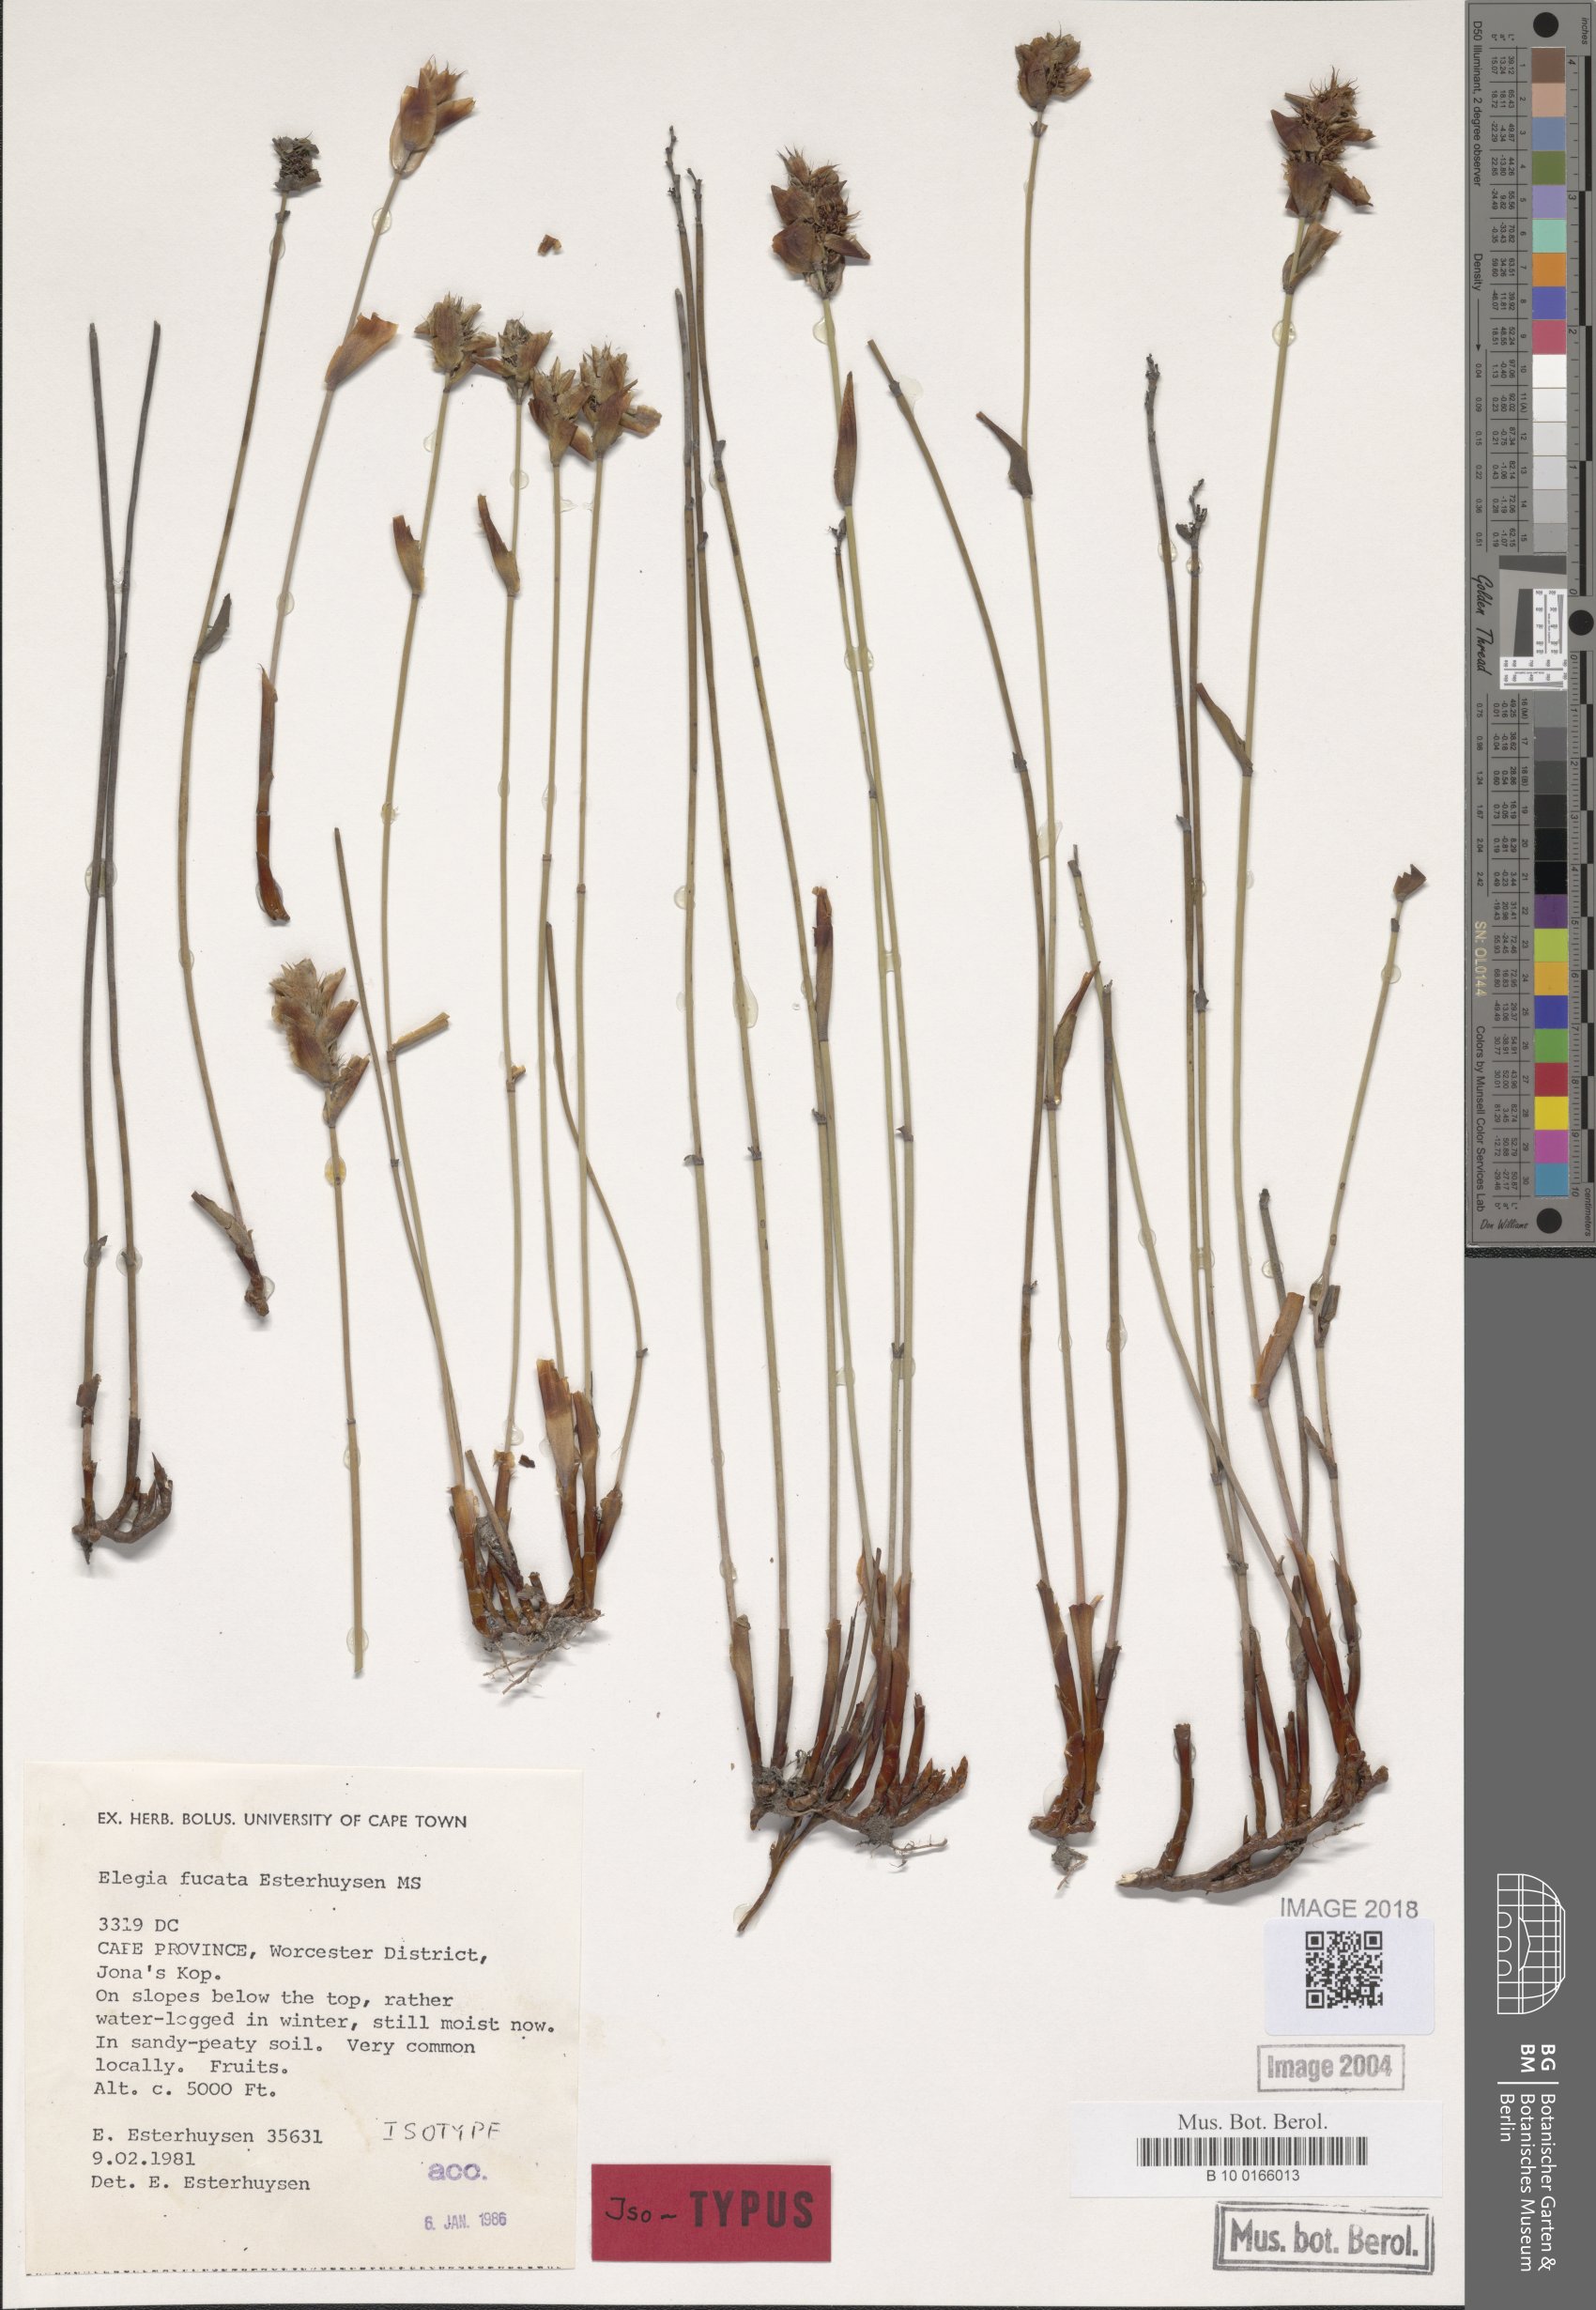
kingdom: Plantae
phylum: Tracheophyta
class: Liliopsida
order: Poales
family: Restionaceae
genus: Elegia
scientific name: Elegia fucata
